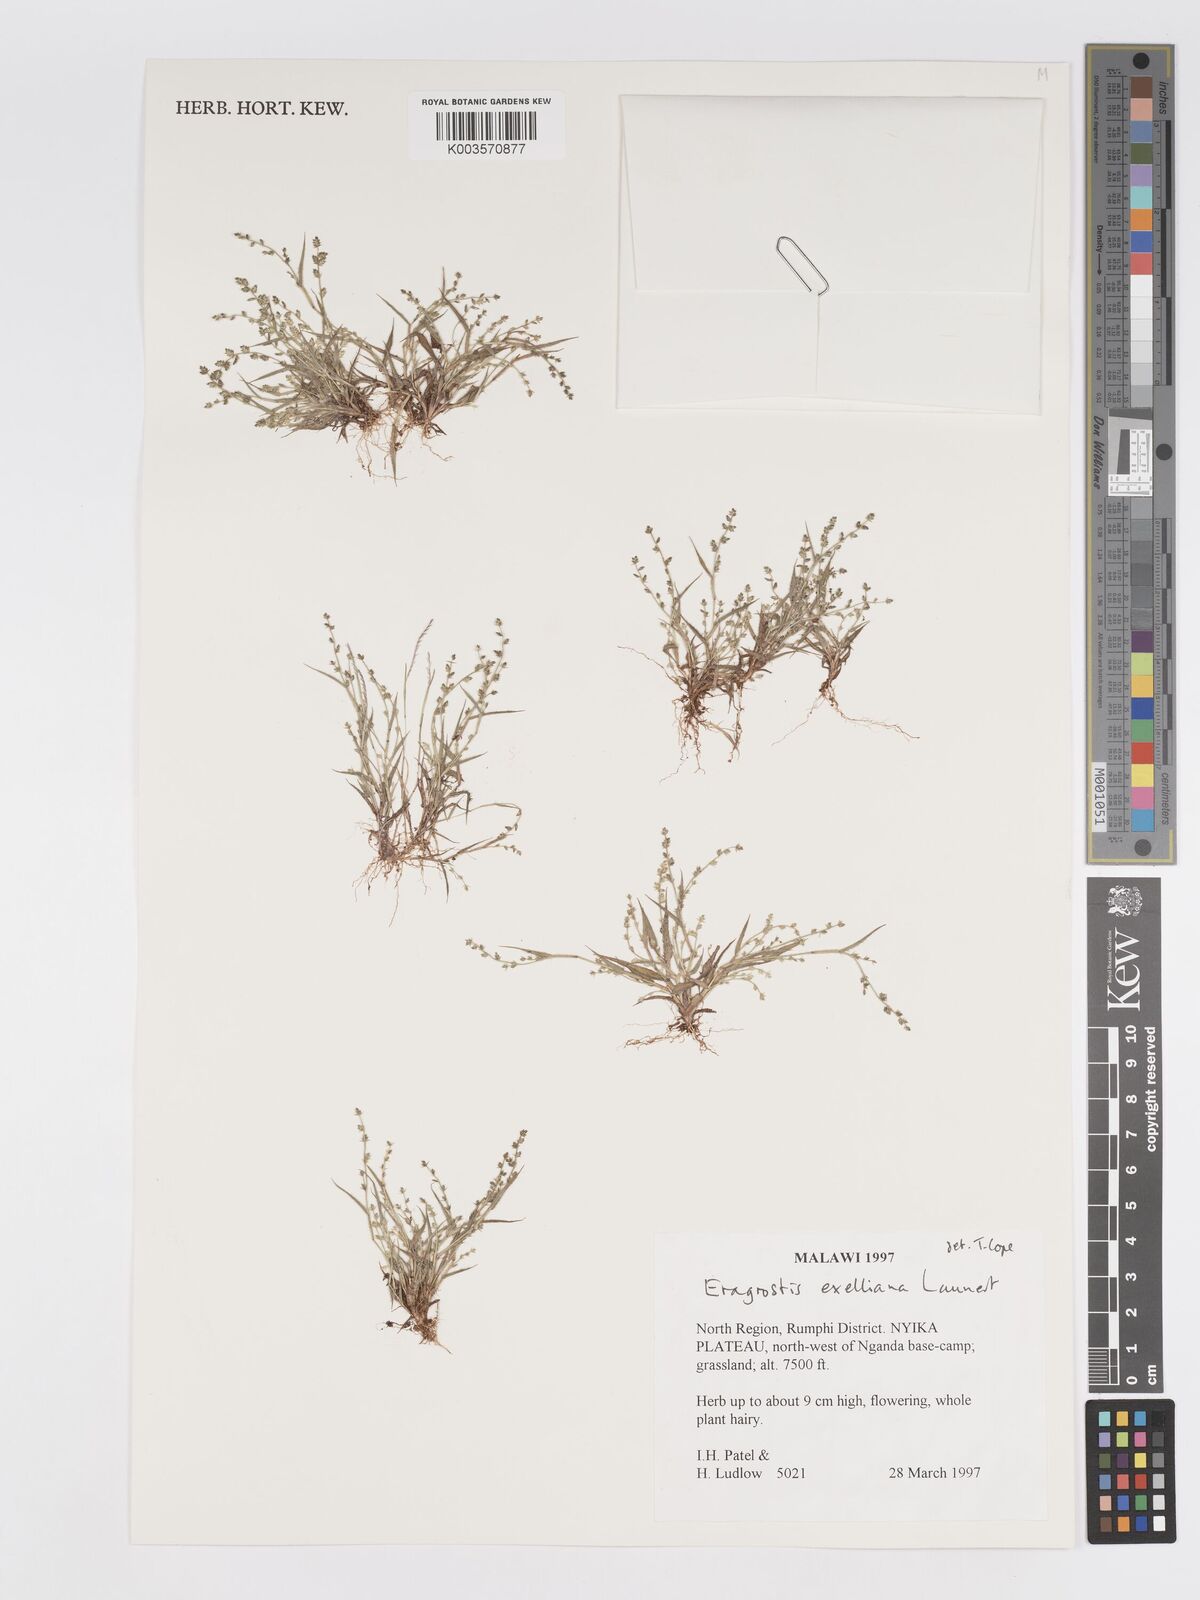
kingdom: Plantae
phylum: Tracheophyta
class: Liliopsida
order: Poales
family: Poaceae
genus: Eragrostis
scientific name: Eragrostis exelliana
